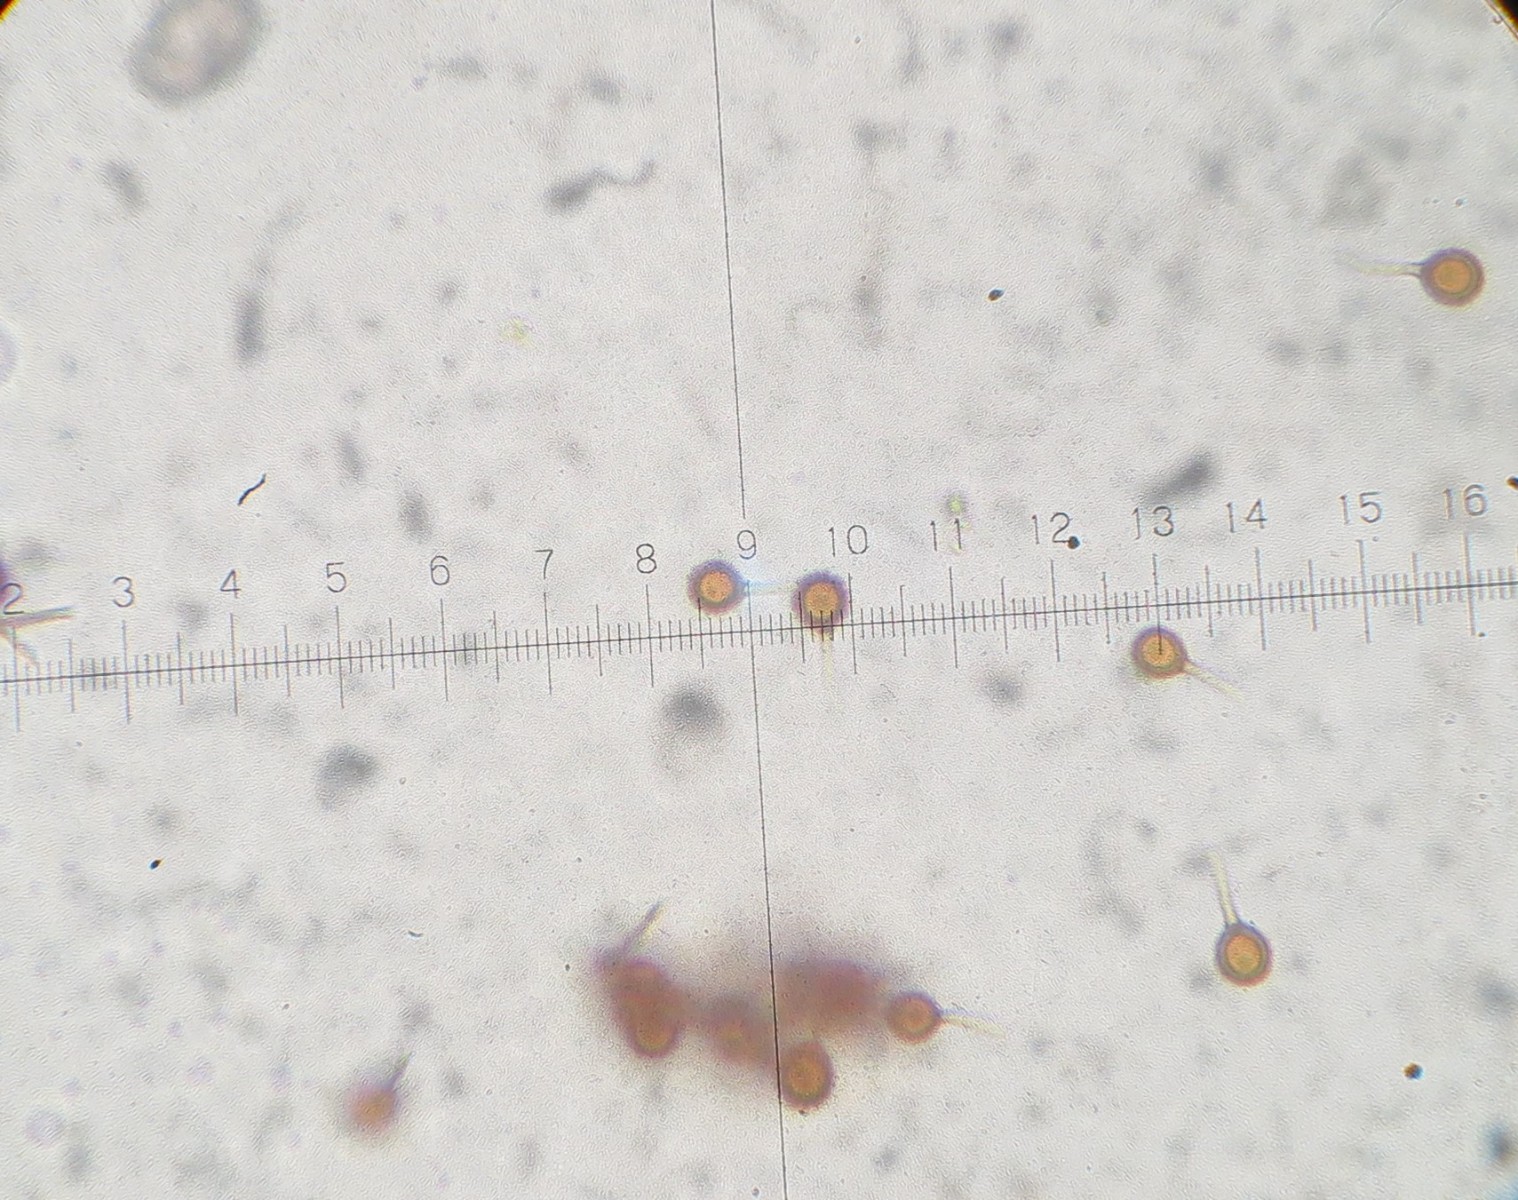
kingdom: Fungi
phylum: Basidiomycota
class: Agaricomycetes
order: Agaricales
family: Lycoperdaceae
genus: Bovista
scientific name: Bovista nigrescens
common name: sortagtig bovist
